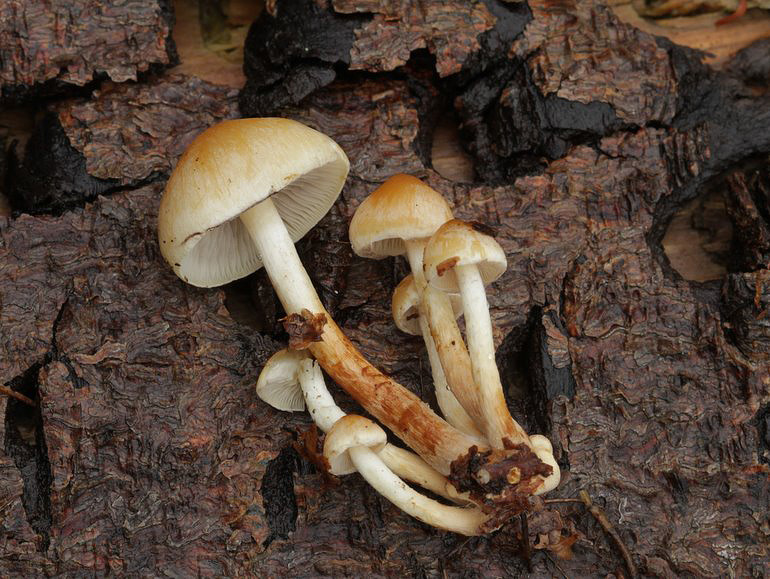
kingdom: Fungi
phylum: Basidiomycota
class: Agaricomycetes
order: Agaricales
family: Strophariaceae
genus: Hypholoma
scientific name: Hypholoma capnoides
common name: gran-svovlhat
